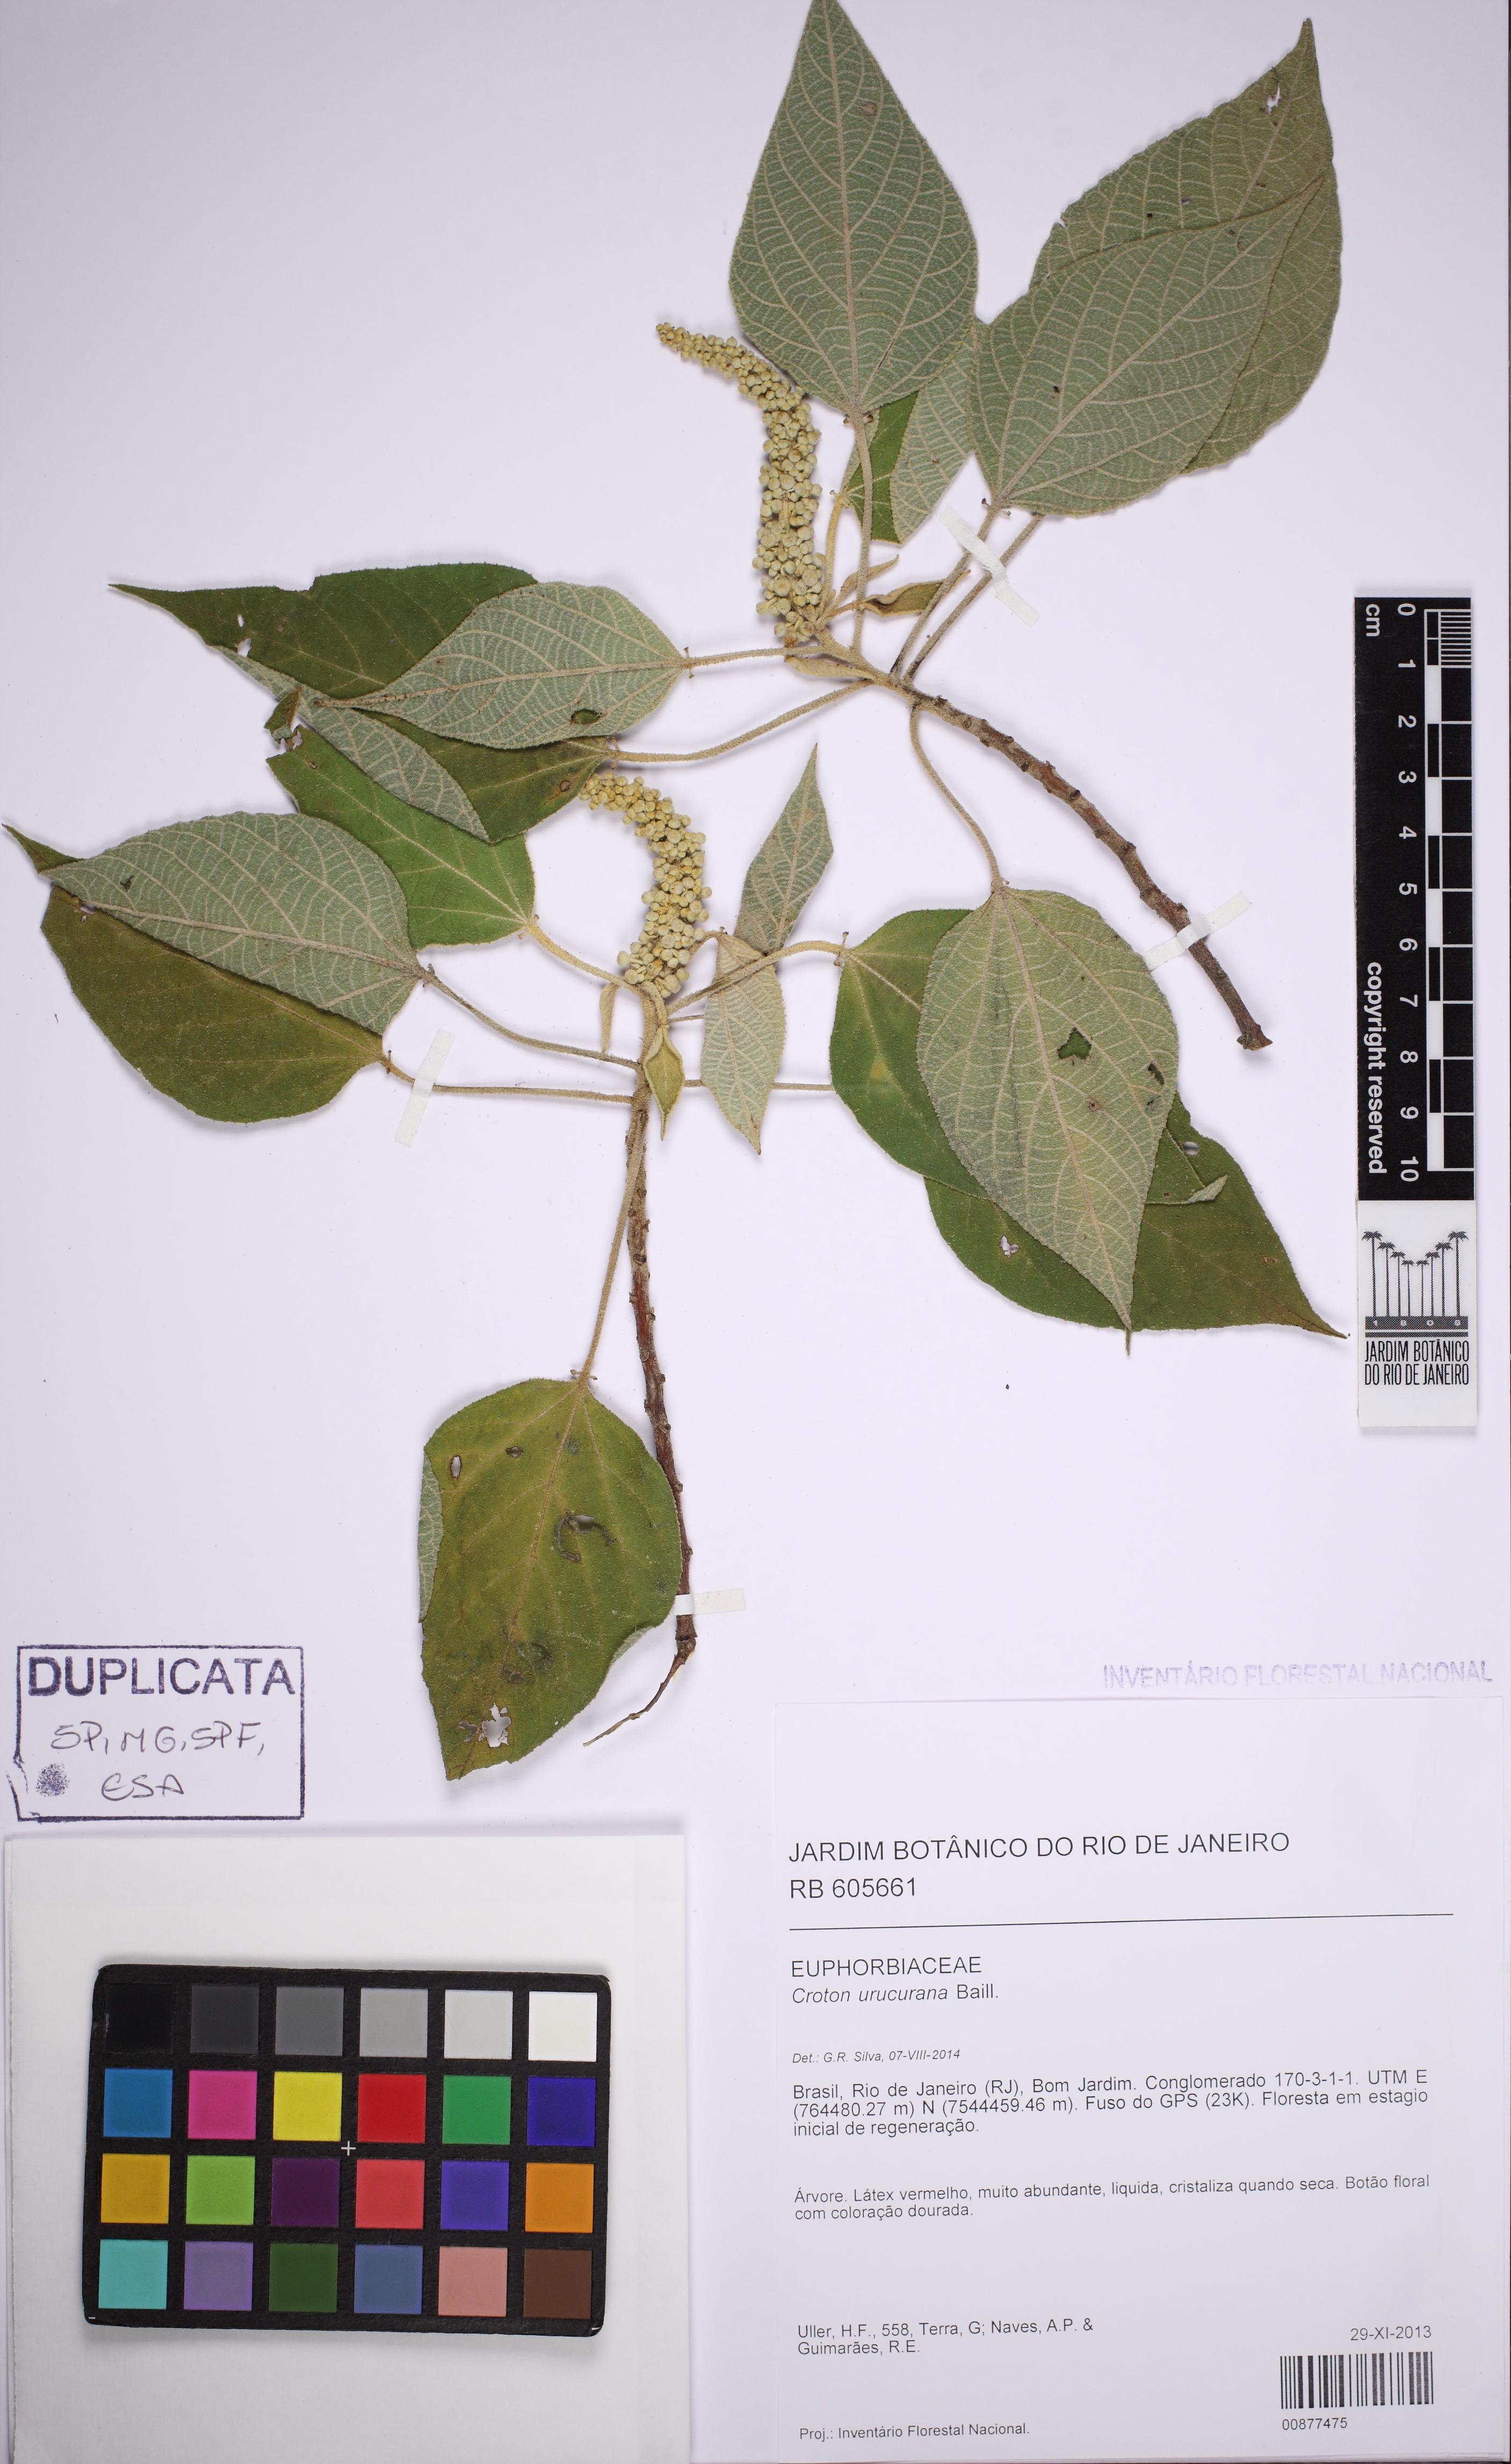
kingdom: Plantae
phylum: Tracheophyta
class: Magnoliopsida
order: Malpighiales
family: Euphorbiaceae
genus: Croton
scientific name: Croton celtidifolius
